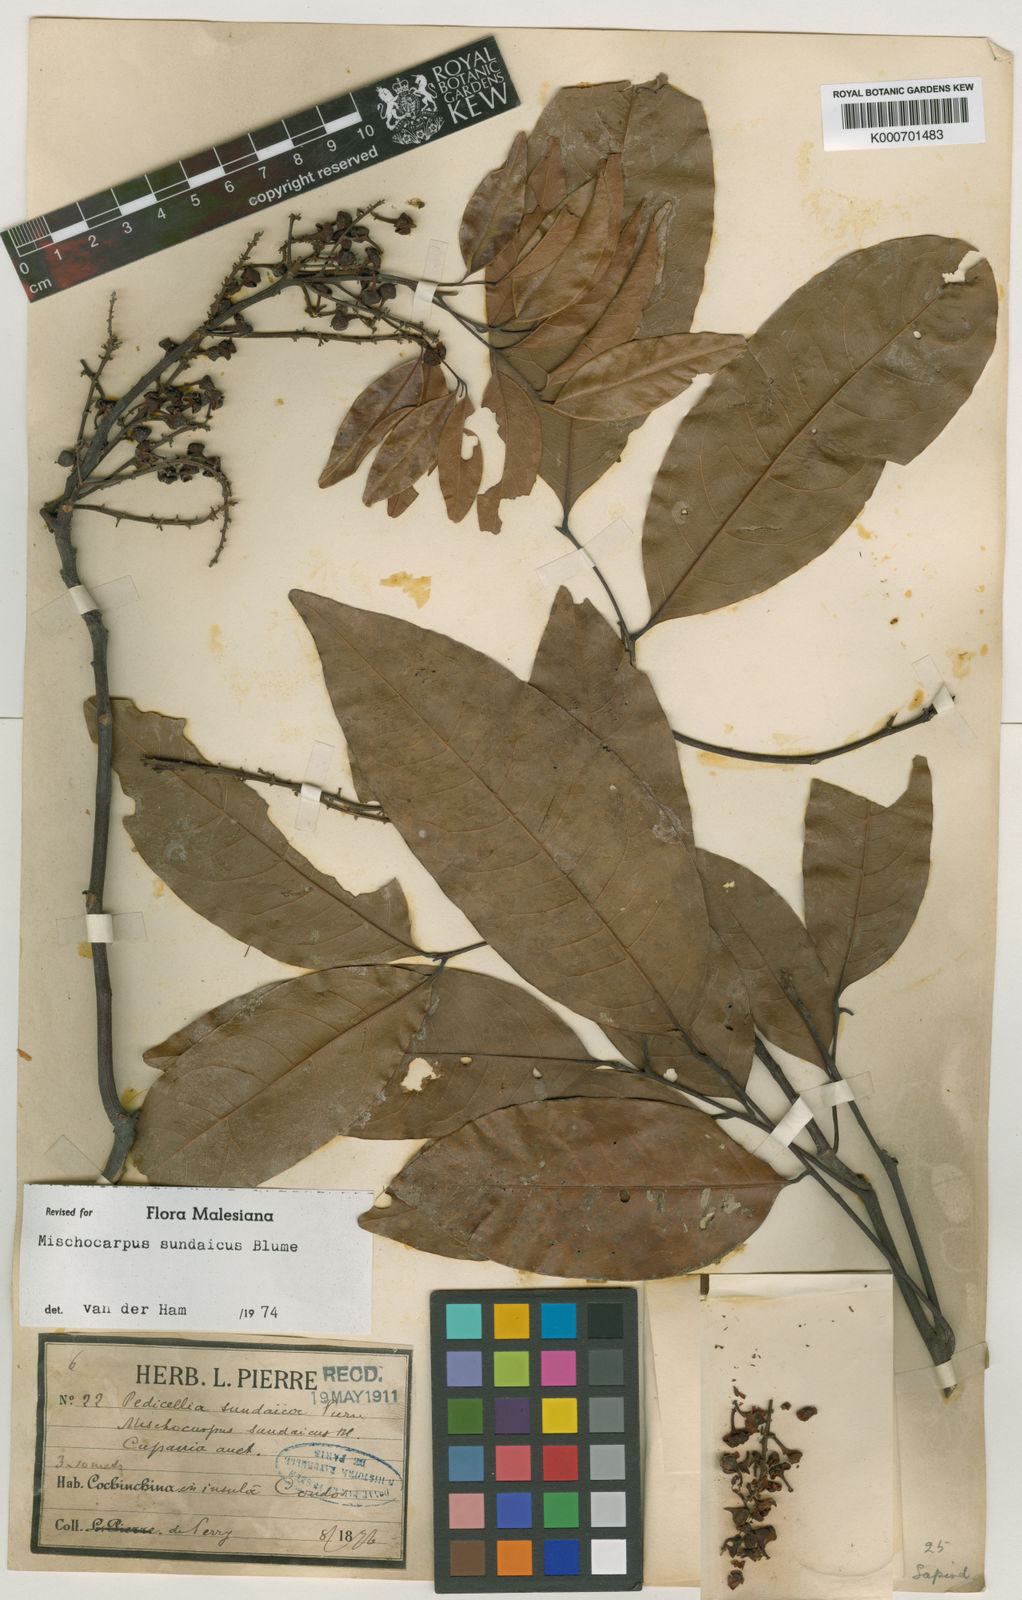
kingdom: Plantae
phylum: Tracheophyta
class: Magnoliopsida
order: Sapindales
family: Sapindaceae
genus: Mischocarpus
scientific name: Mischocarpus sundaicus
